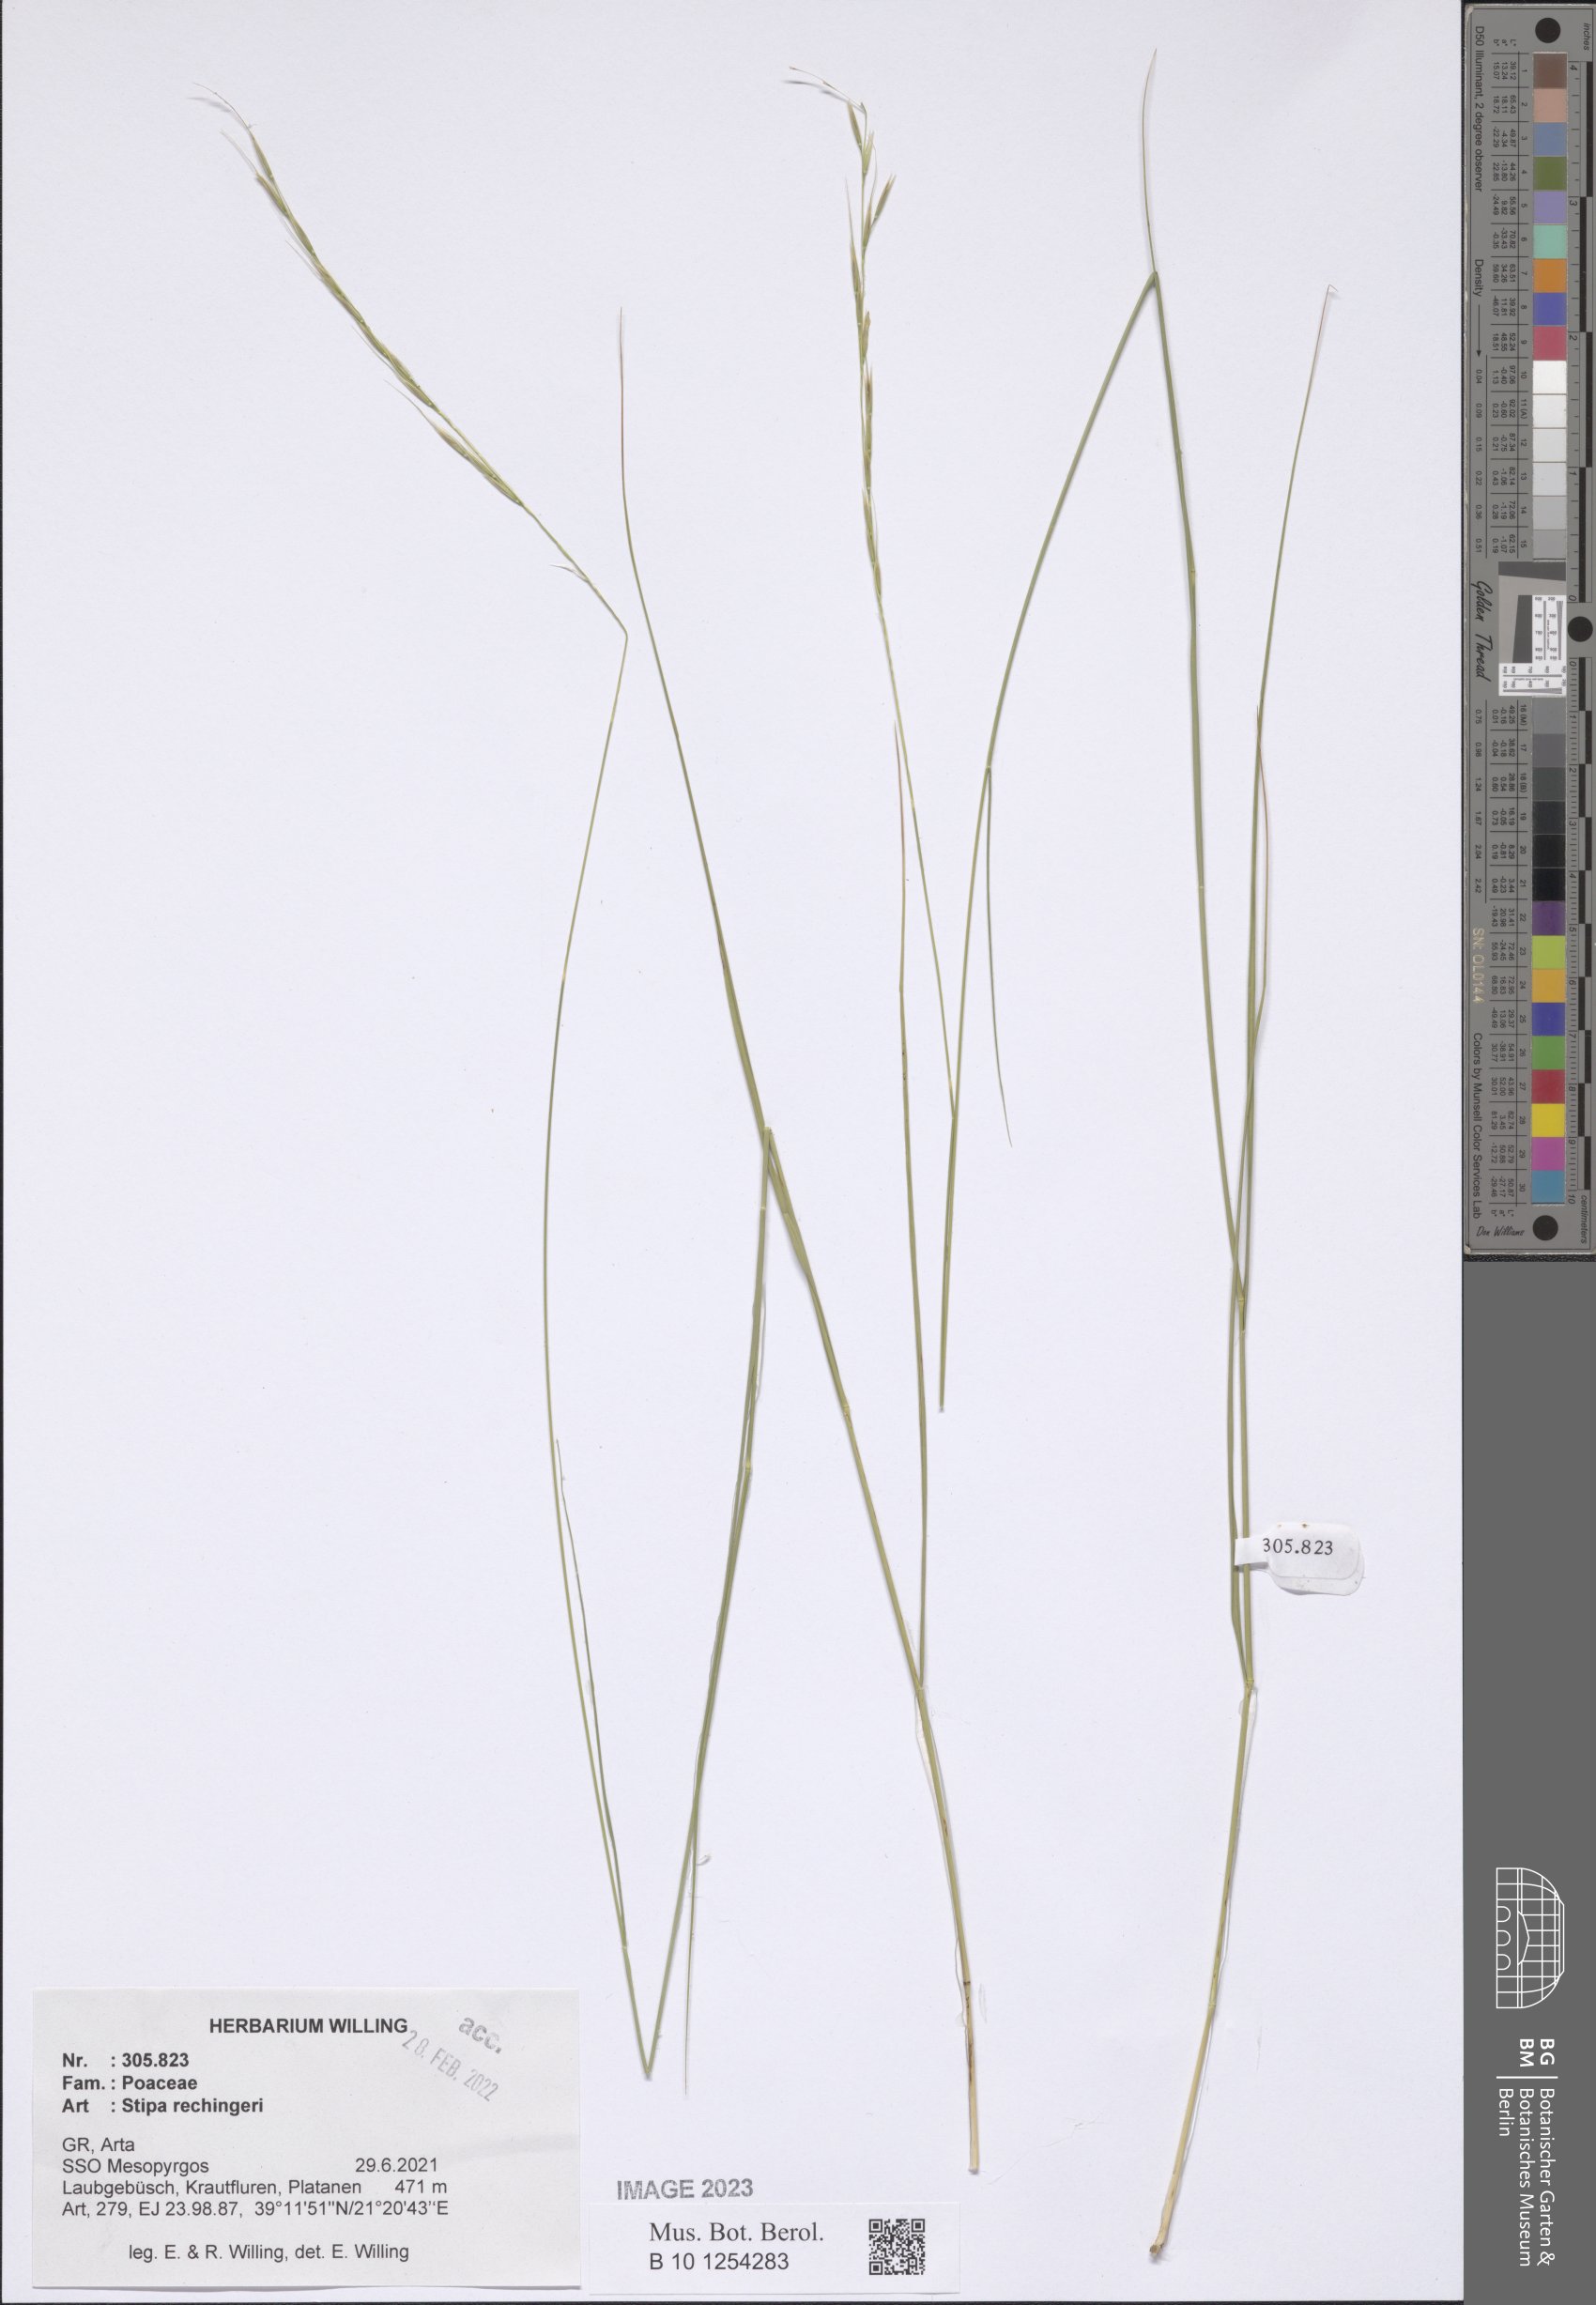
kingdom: Plantae
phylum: Tracheophyta
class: Liliopsida
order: Poales
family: Poaceae
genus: Stipa
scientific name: Stipa rechingeri
